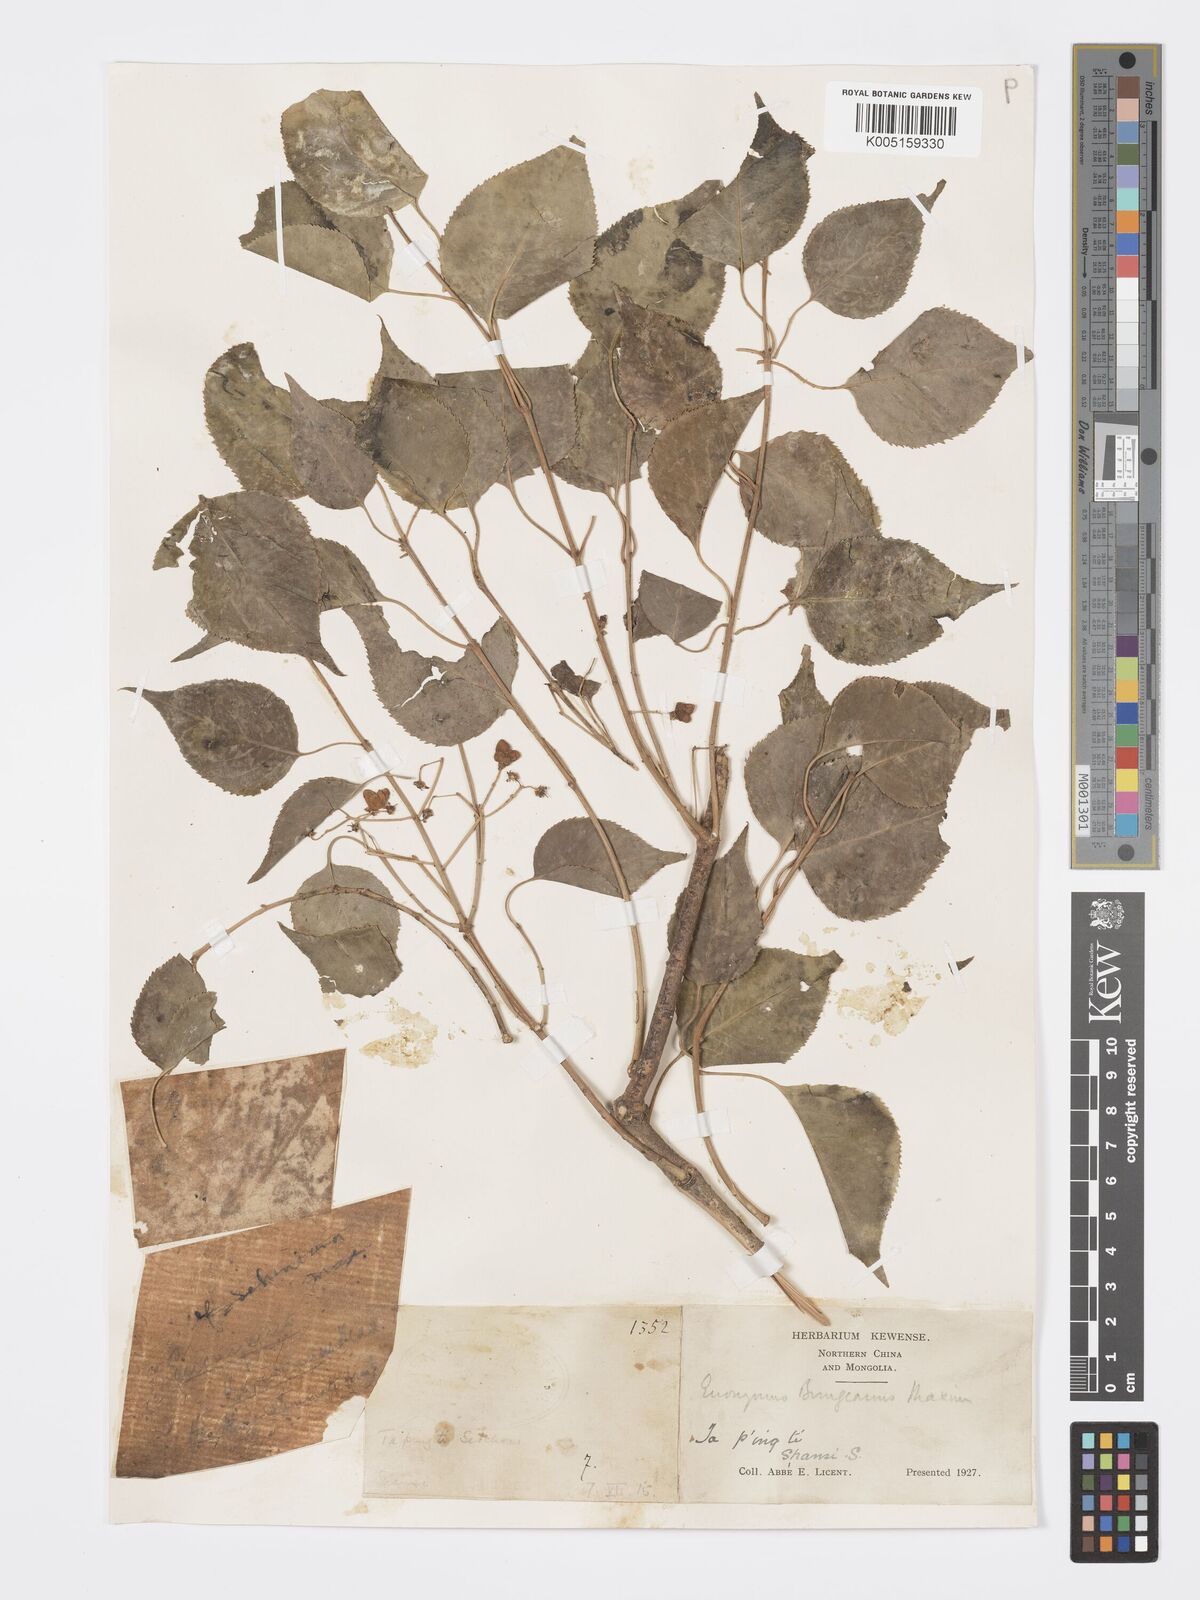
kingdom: Plantae
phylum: Tracheophyta
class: Magnoliopsida
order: Celastrales
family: Celastraceae
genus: Euonymus
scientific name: Euonymus maackii
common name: Hamilton's spindletree
